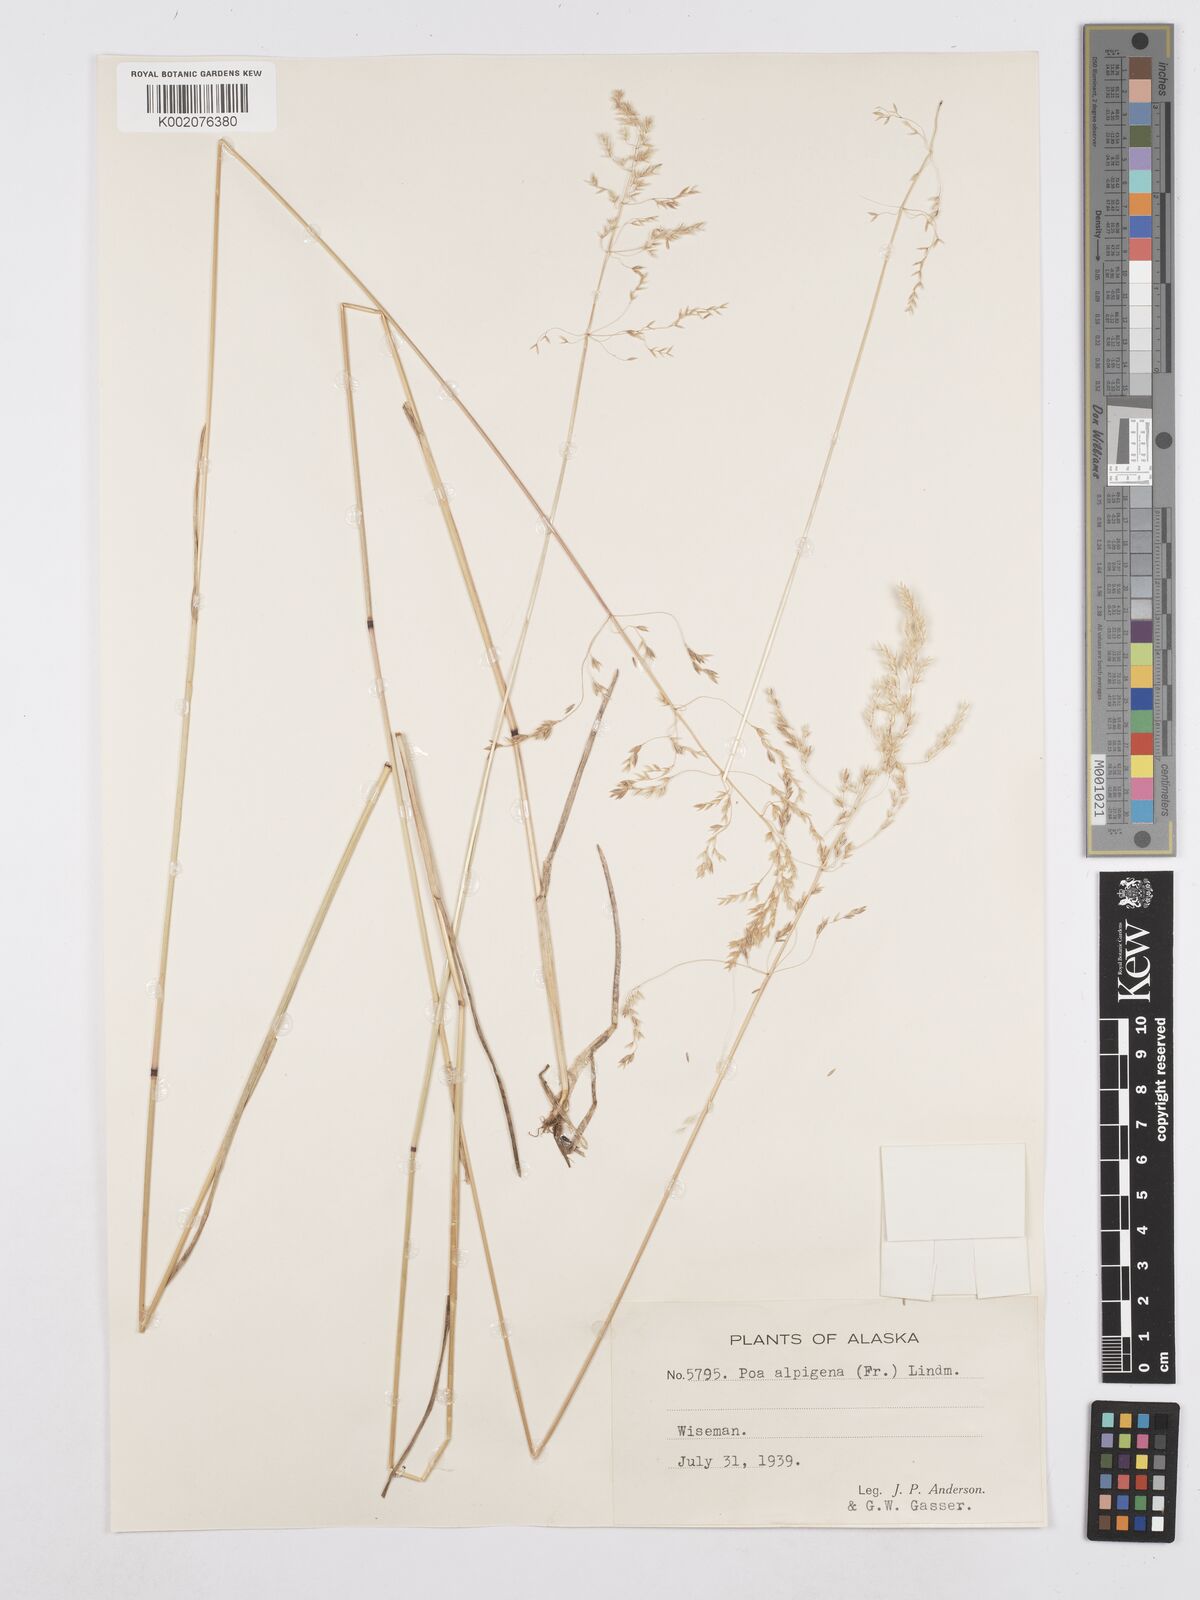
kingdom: Plantae
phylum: Tracheophyta
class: Liliopsida
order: Poales
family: Poaceae
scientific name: Poaceae
